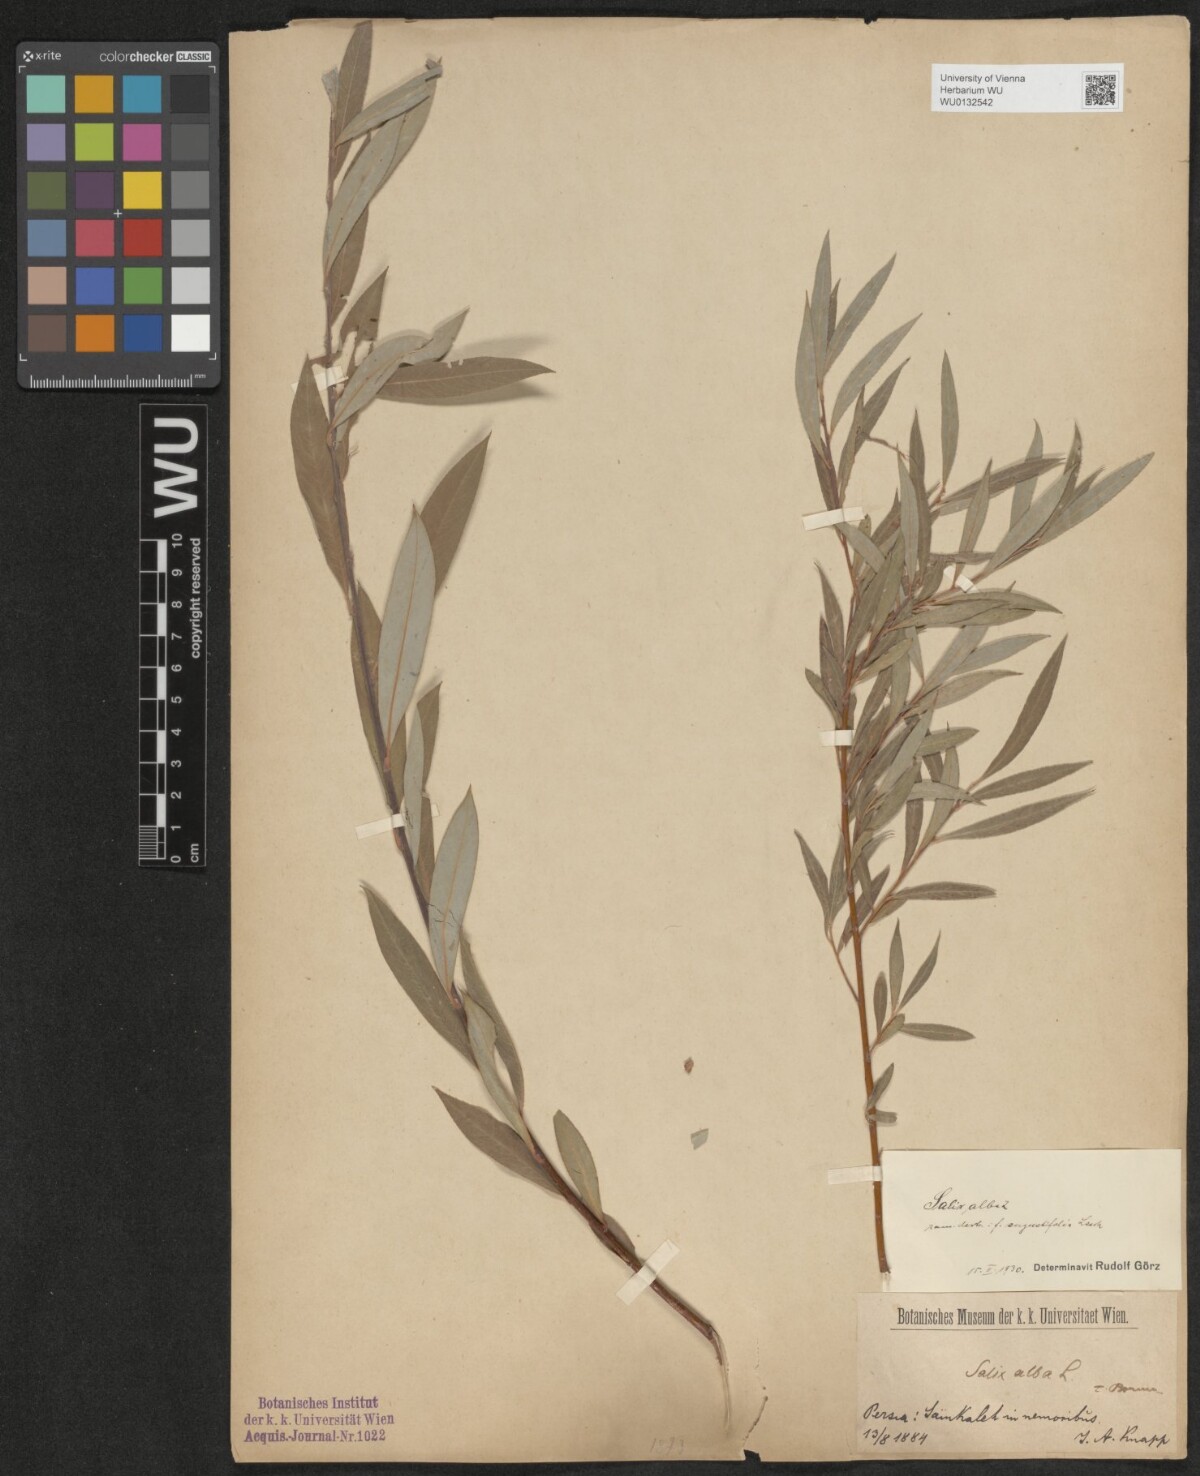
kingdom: Plantae
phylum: Tracheophyta
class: Magnoliopsida
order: Malpighiales
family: Salicaceae
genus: Salix
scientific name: Salix alba
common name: White willow
